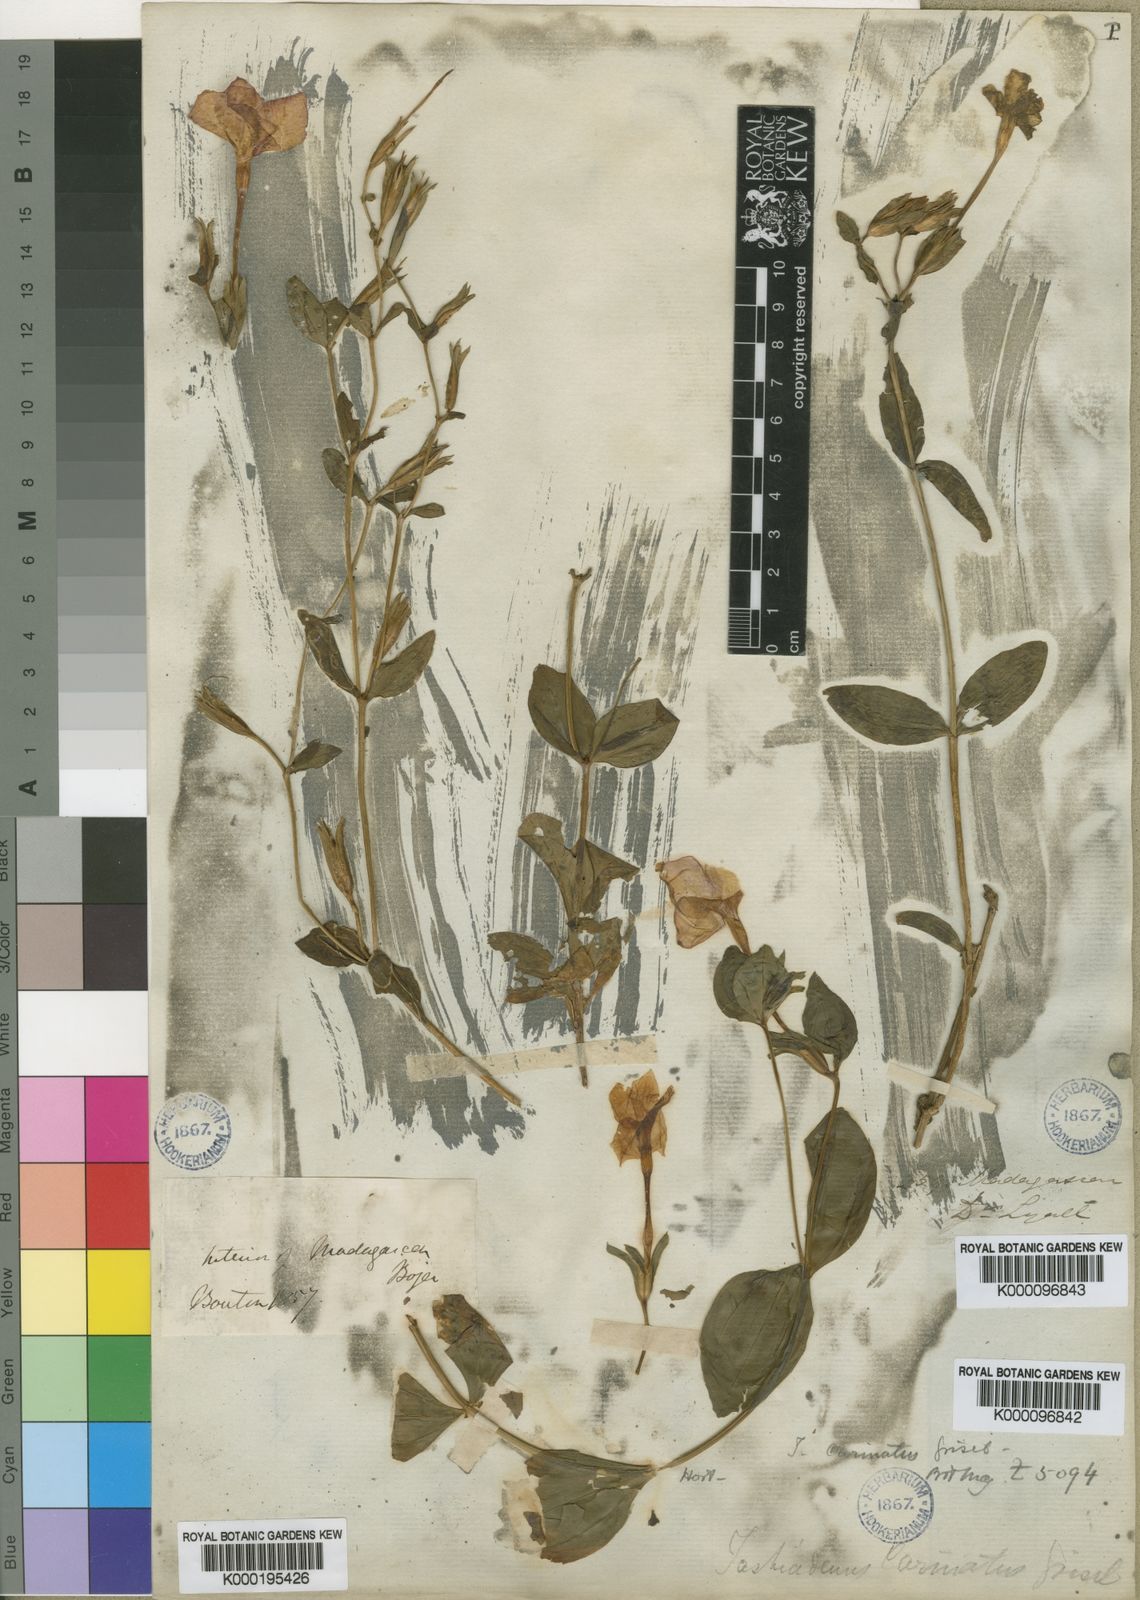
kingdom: Plantae
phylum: Tracheophyta
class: Magnoliopsida
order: Gentianales
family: Gentianaceae
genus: Tachiadenus
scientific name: Tachiadenus carinatus
